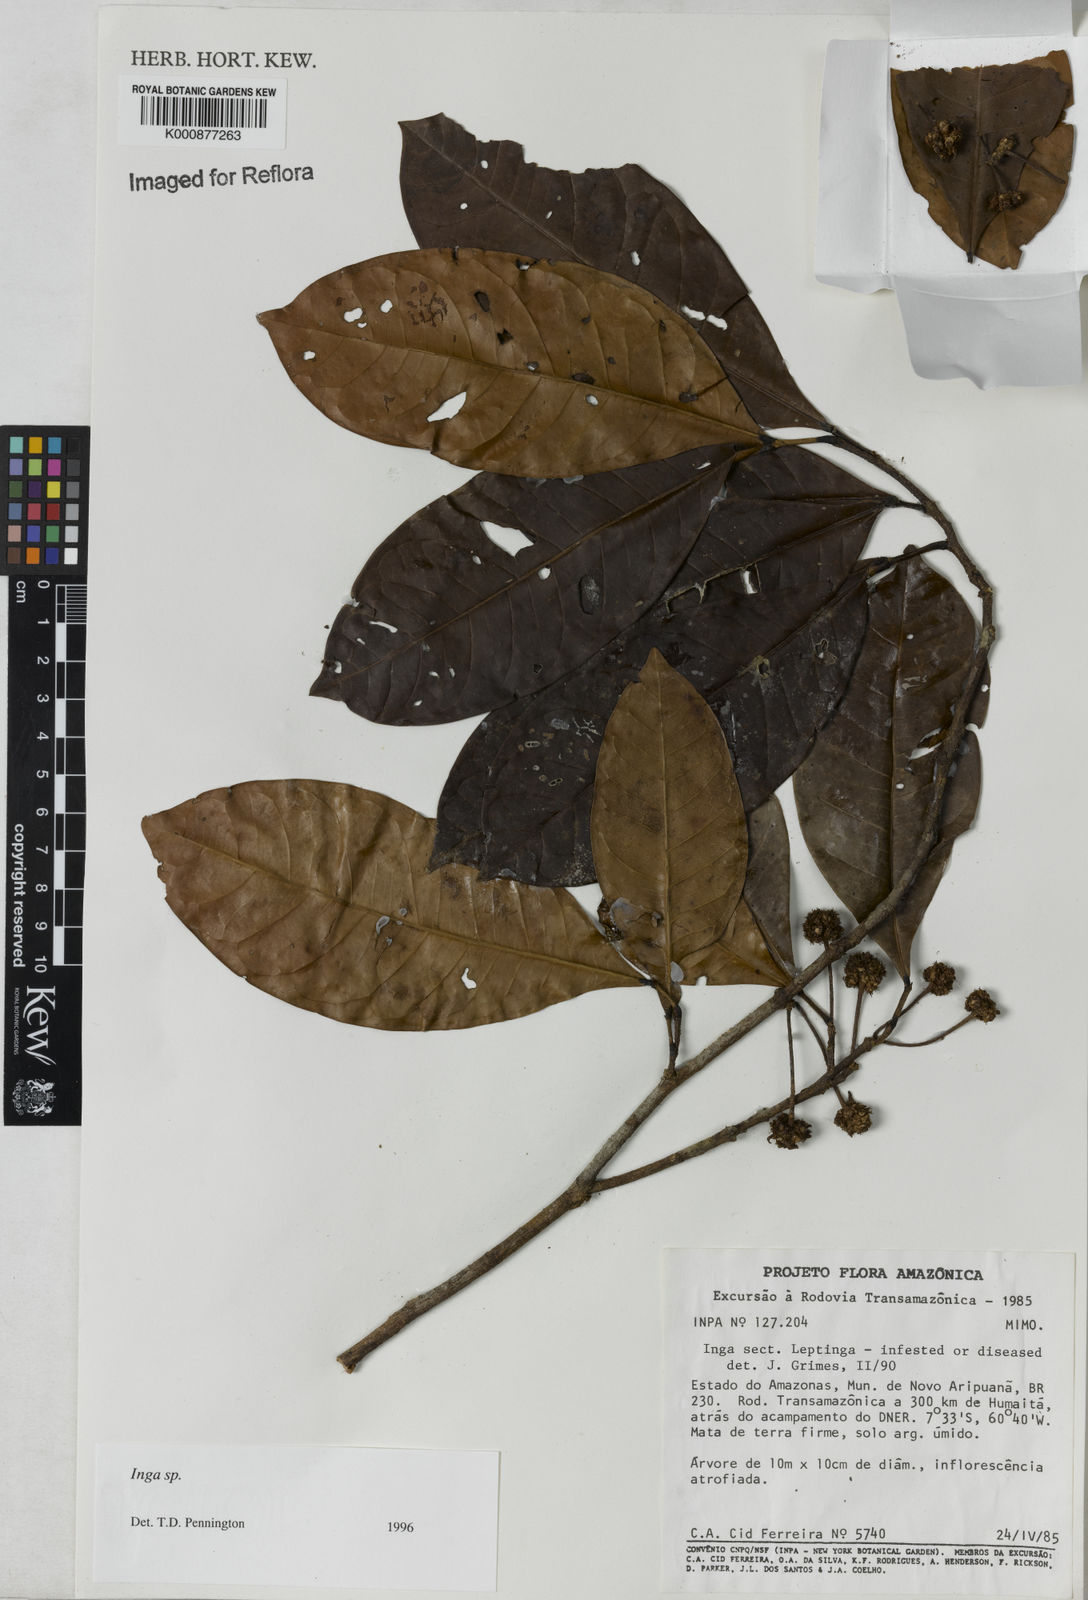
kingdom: Plantae
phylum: Tracheophyta
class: Magnoliopsida
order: Fabales
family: Fabaceae
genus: Inga
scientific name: Inga
